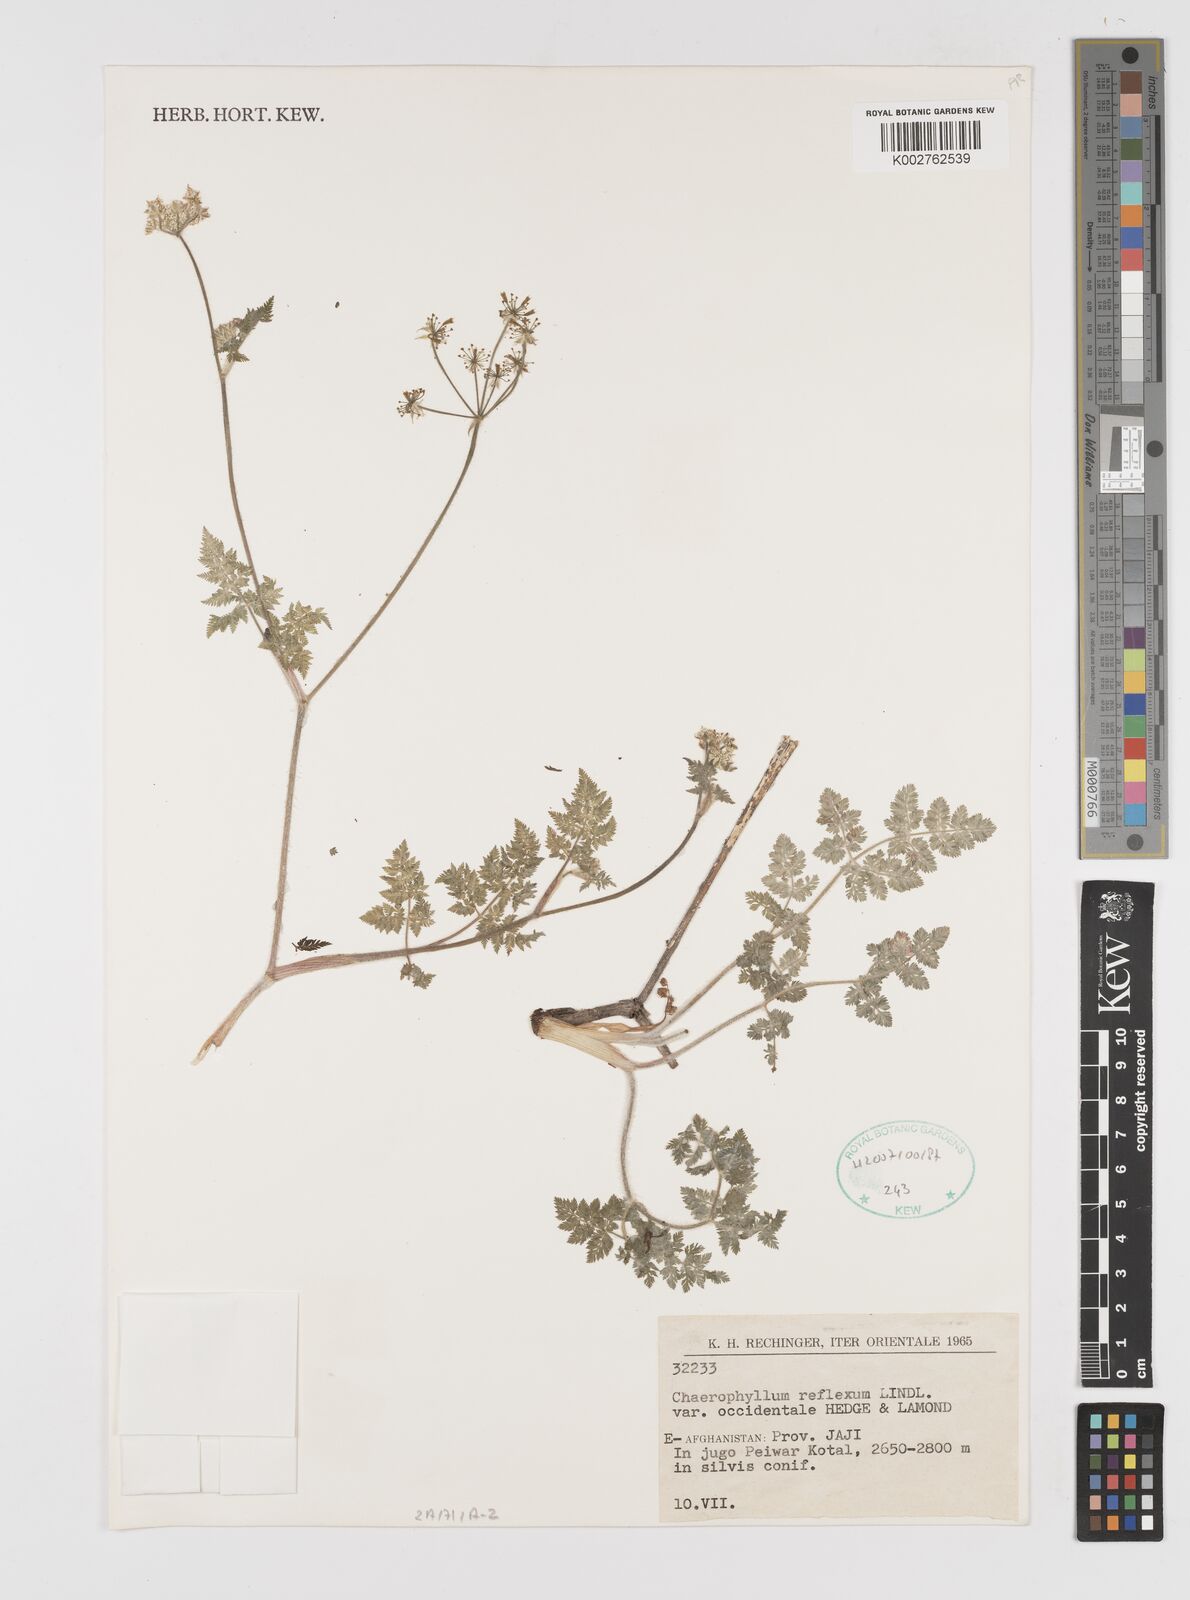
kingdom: Plantae
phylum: Tracheophyta
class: Magnoliopsida
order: Apiales
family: Apiaceae
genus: Chaerophyllum
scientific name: Chaerophyllum reflexum
